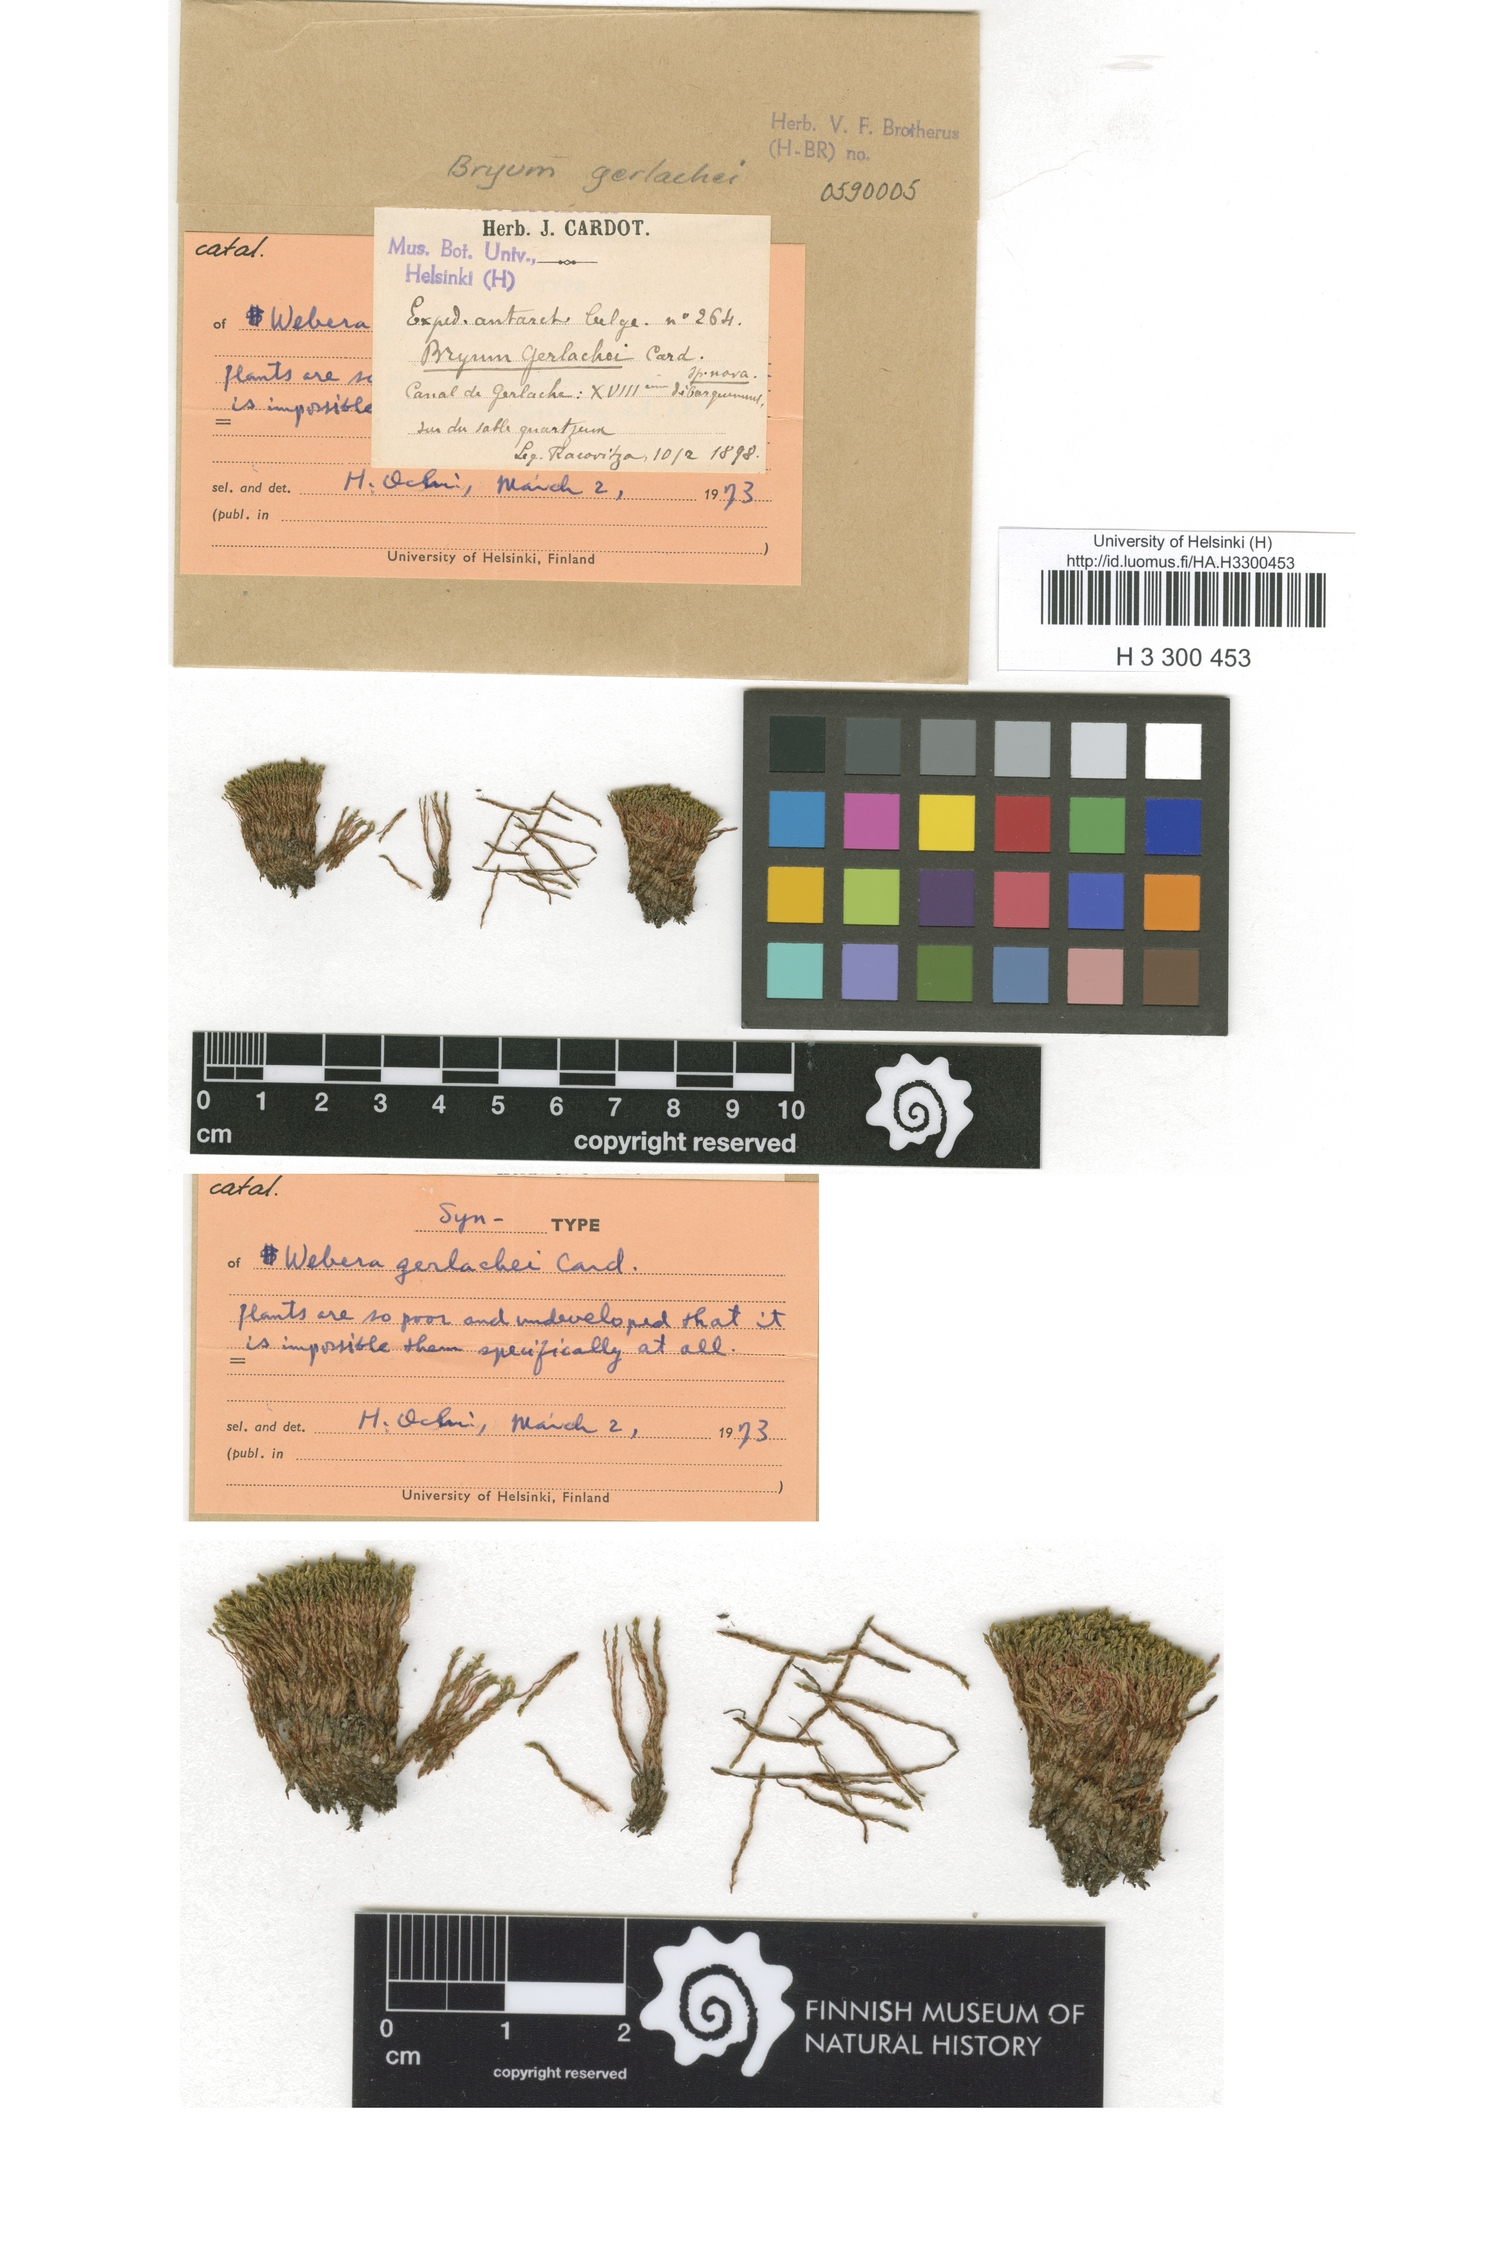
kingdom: Plantae
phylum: Bryophyta
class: Bryopsida
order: Bryales
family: Bryaceae
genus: Ptychostomum
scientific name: Ptychostomum pseudotriquetrum
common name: Long-leaved thread moss
